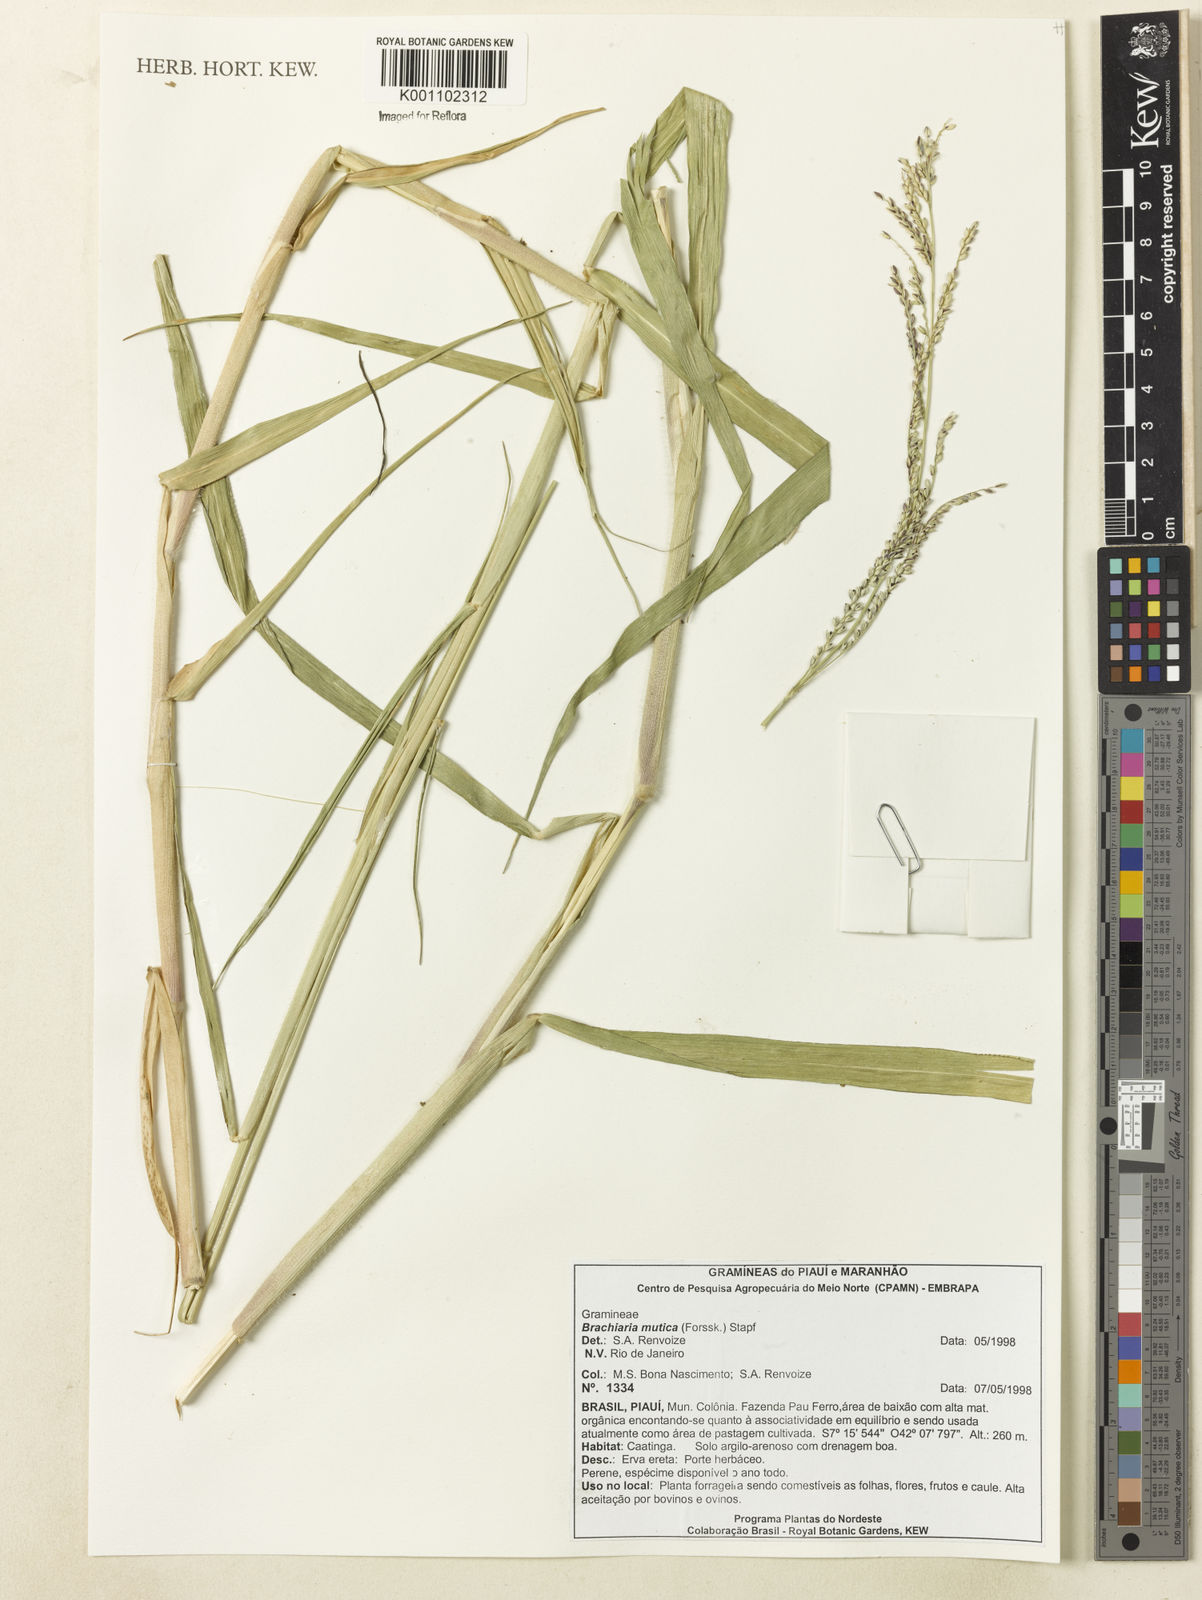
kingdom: Plantae
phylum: Tracheophyta
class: Liliopsida
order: Poales
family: Poaceae
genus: Urochloa
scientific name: Urochloa mutica
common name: Para grass
